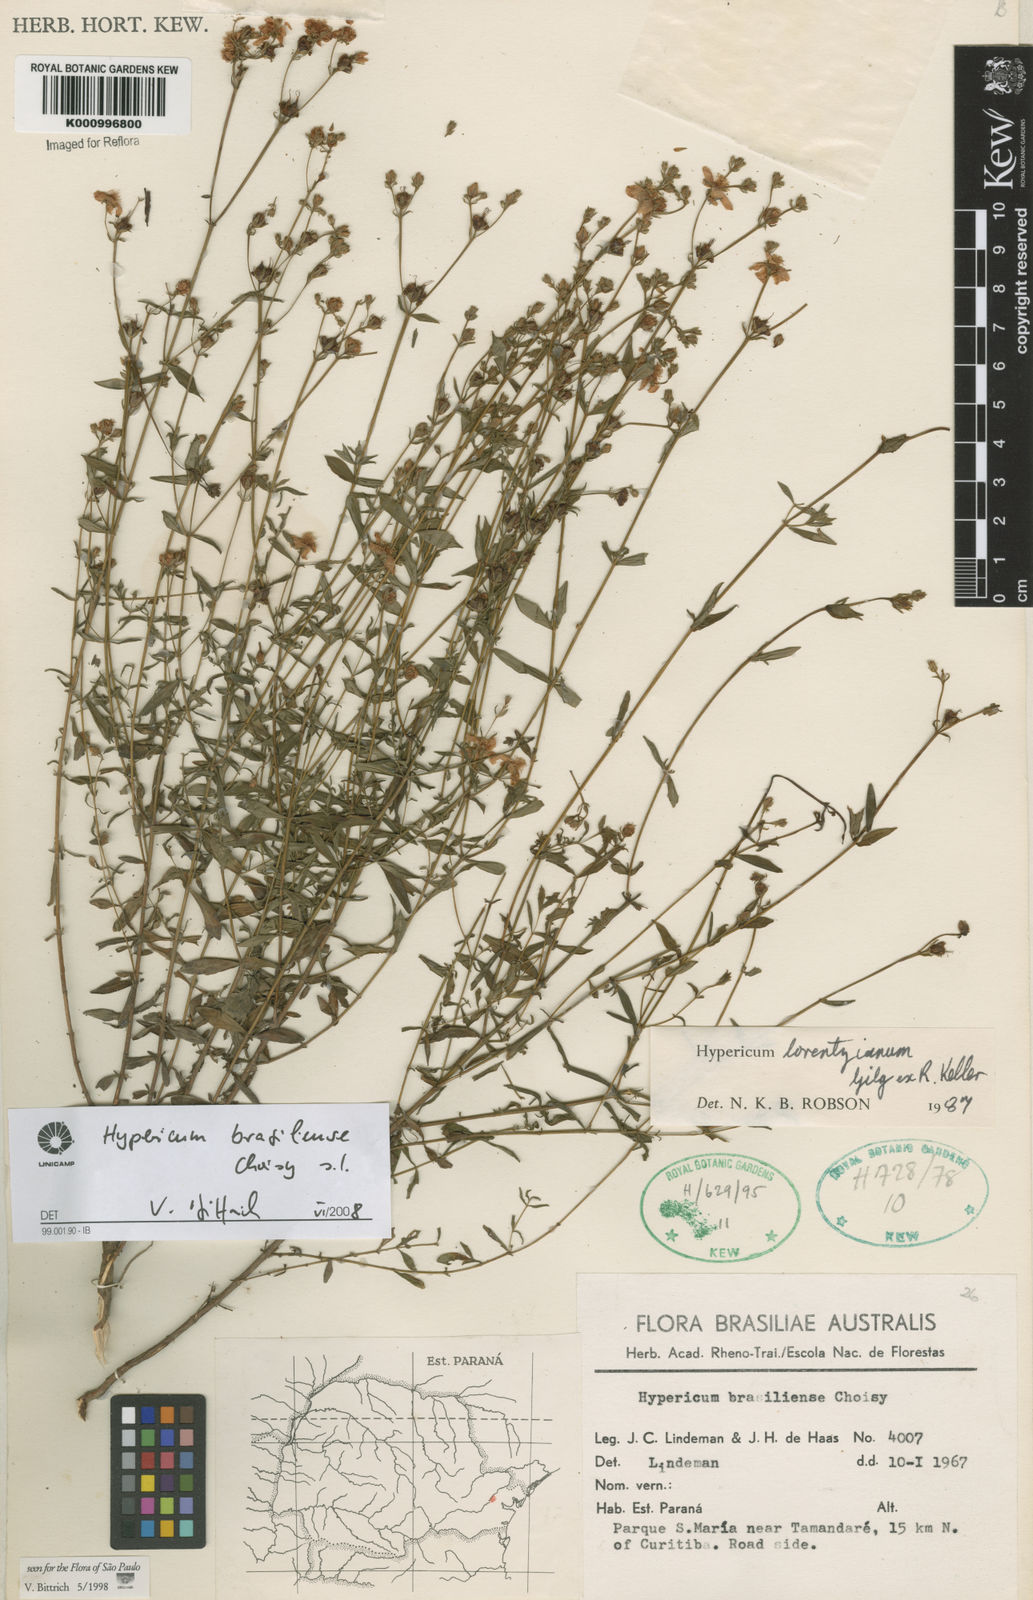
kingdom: Plantae
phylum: Tracheophyta
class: Magnoliopsida
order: Malpighiales
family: Hypericaceae
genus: Hypericum
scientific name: Hypericum brasiliense
